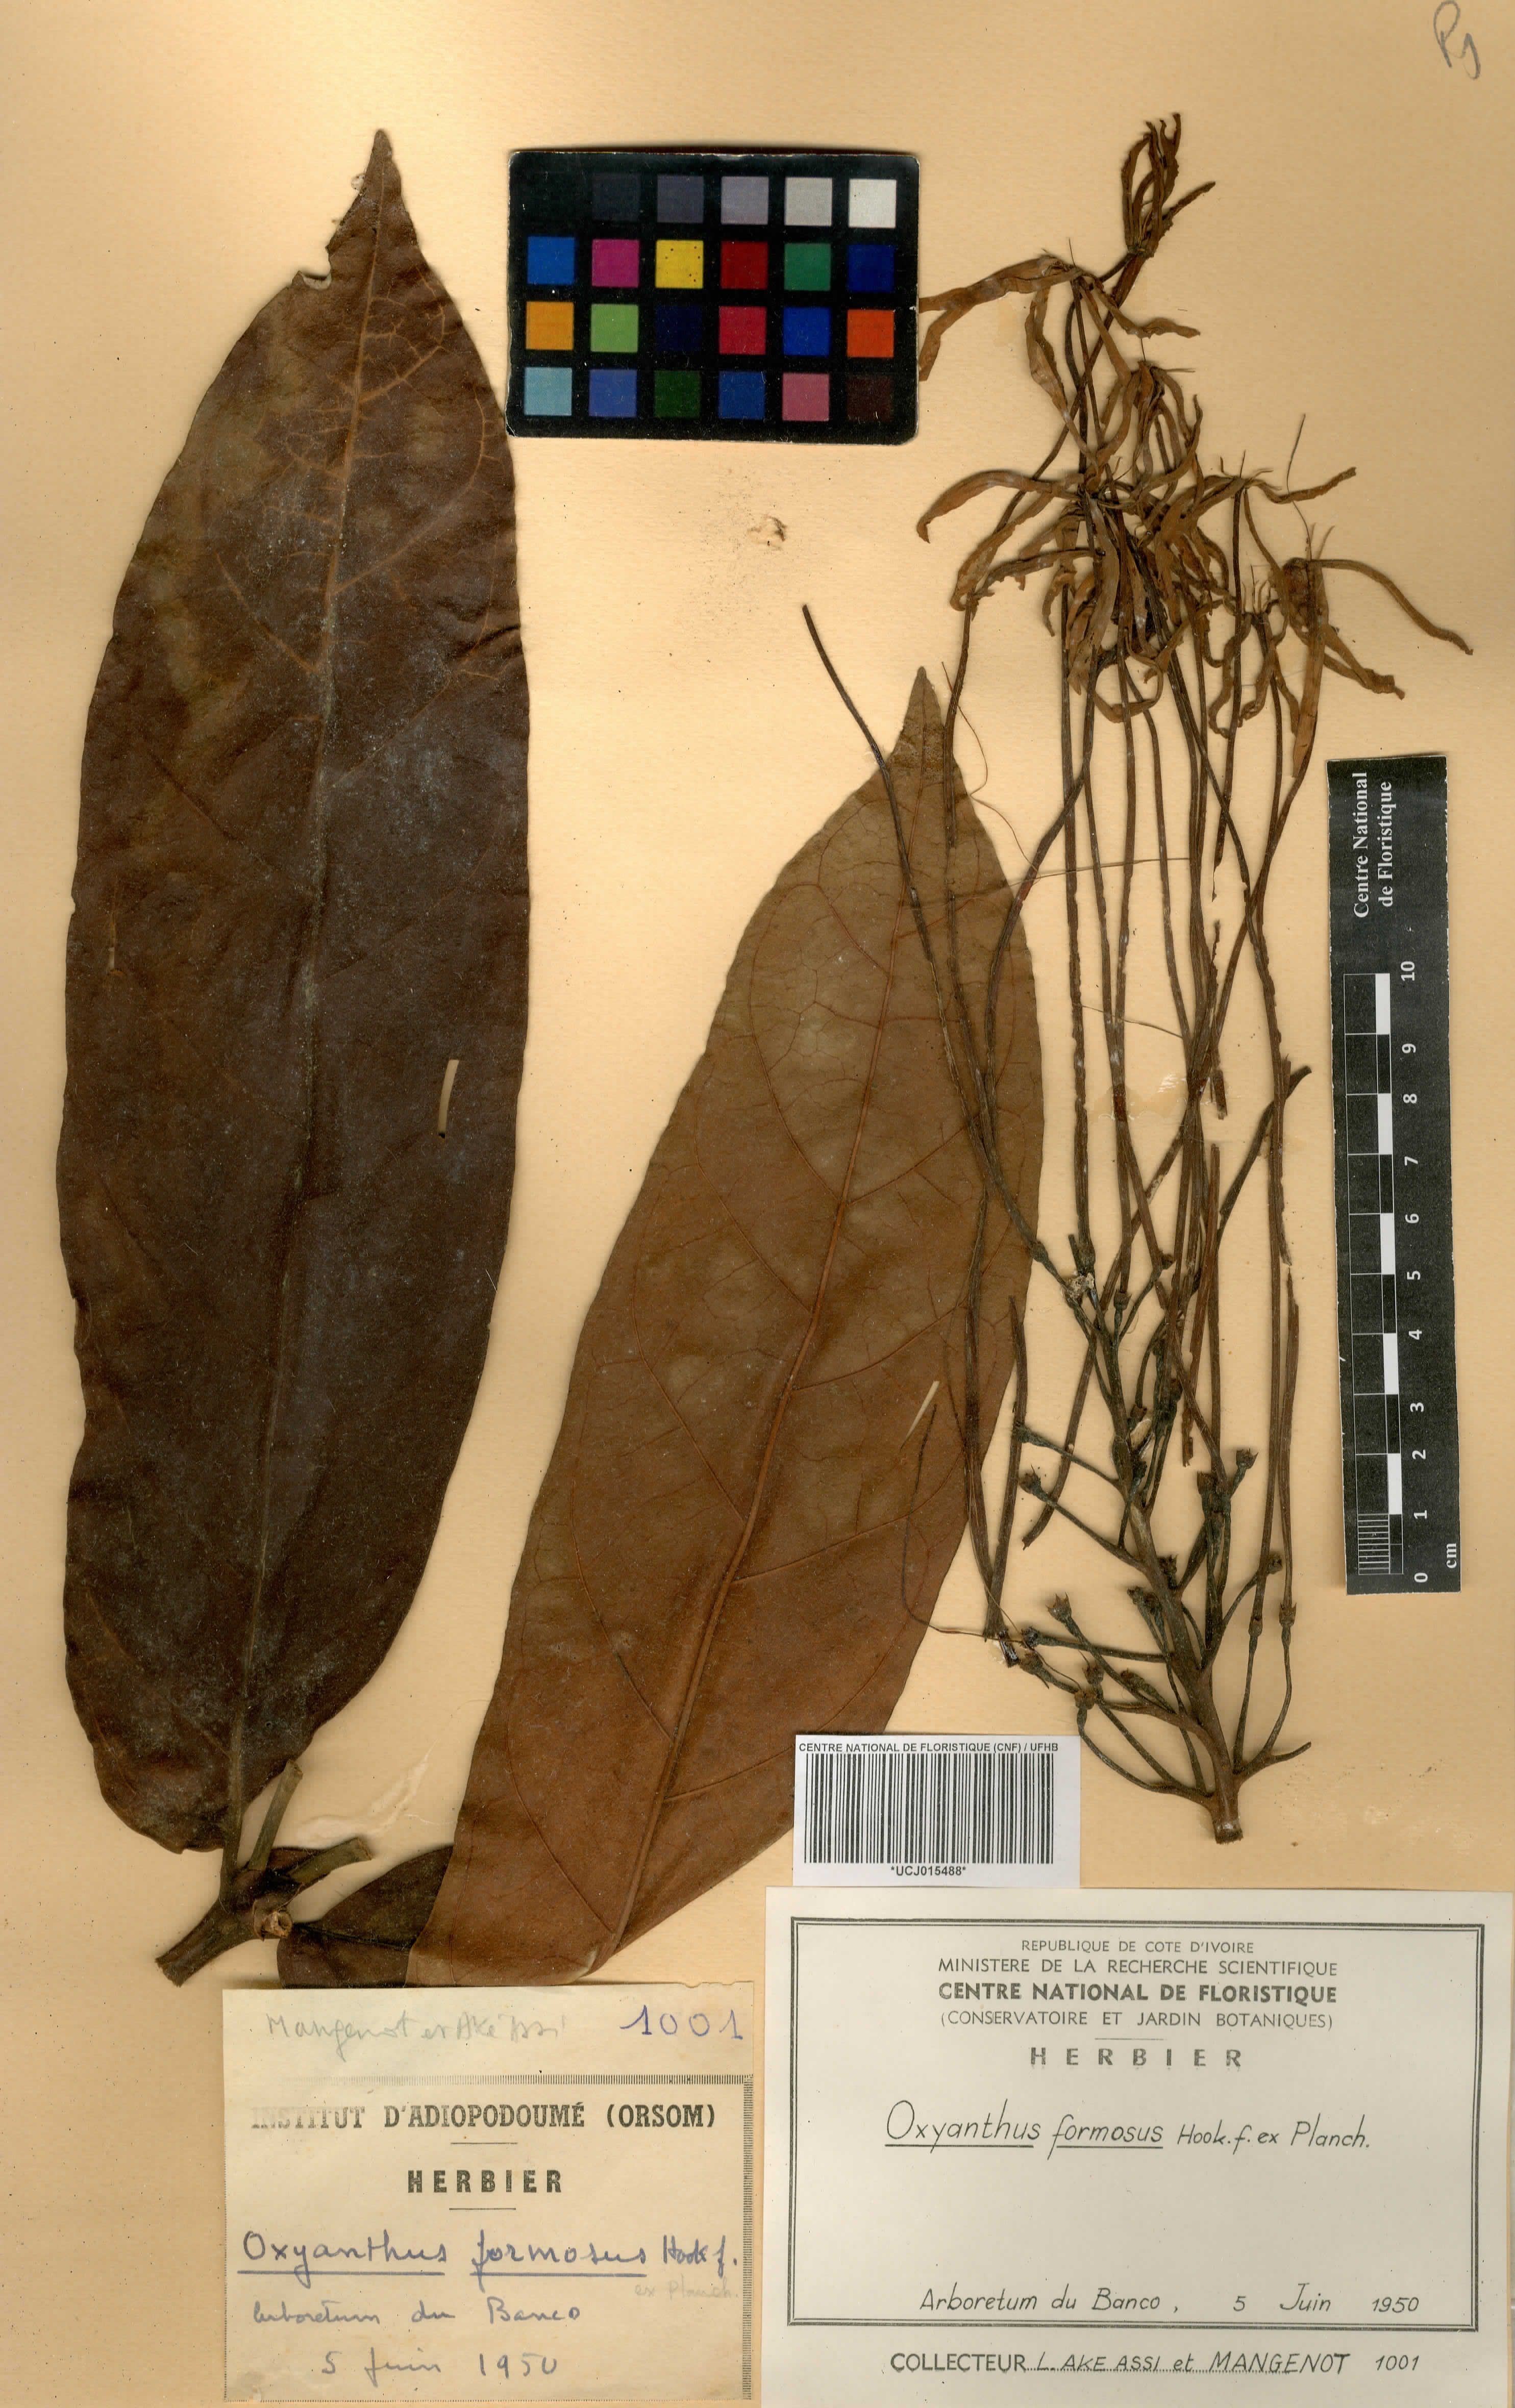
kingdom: Plantae
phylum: Tracheophyta
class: Magnoliopsida
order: Gentianales
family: Rubiaceae
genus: Oxyanthus
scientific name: Oxyanthus formosus
